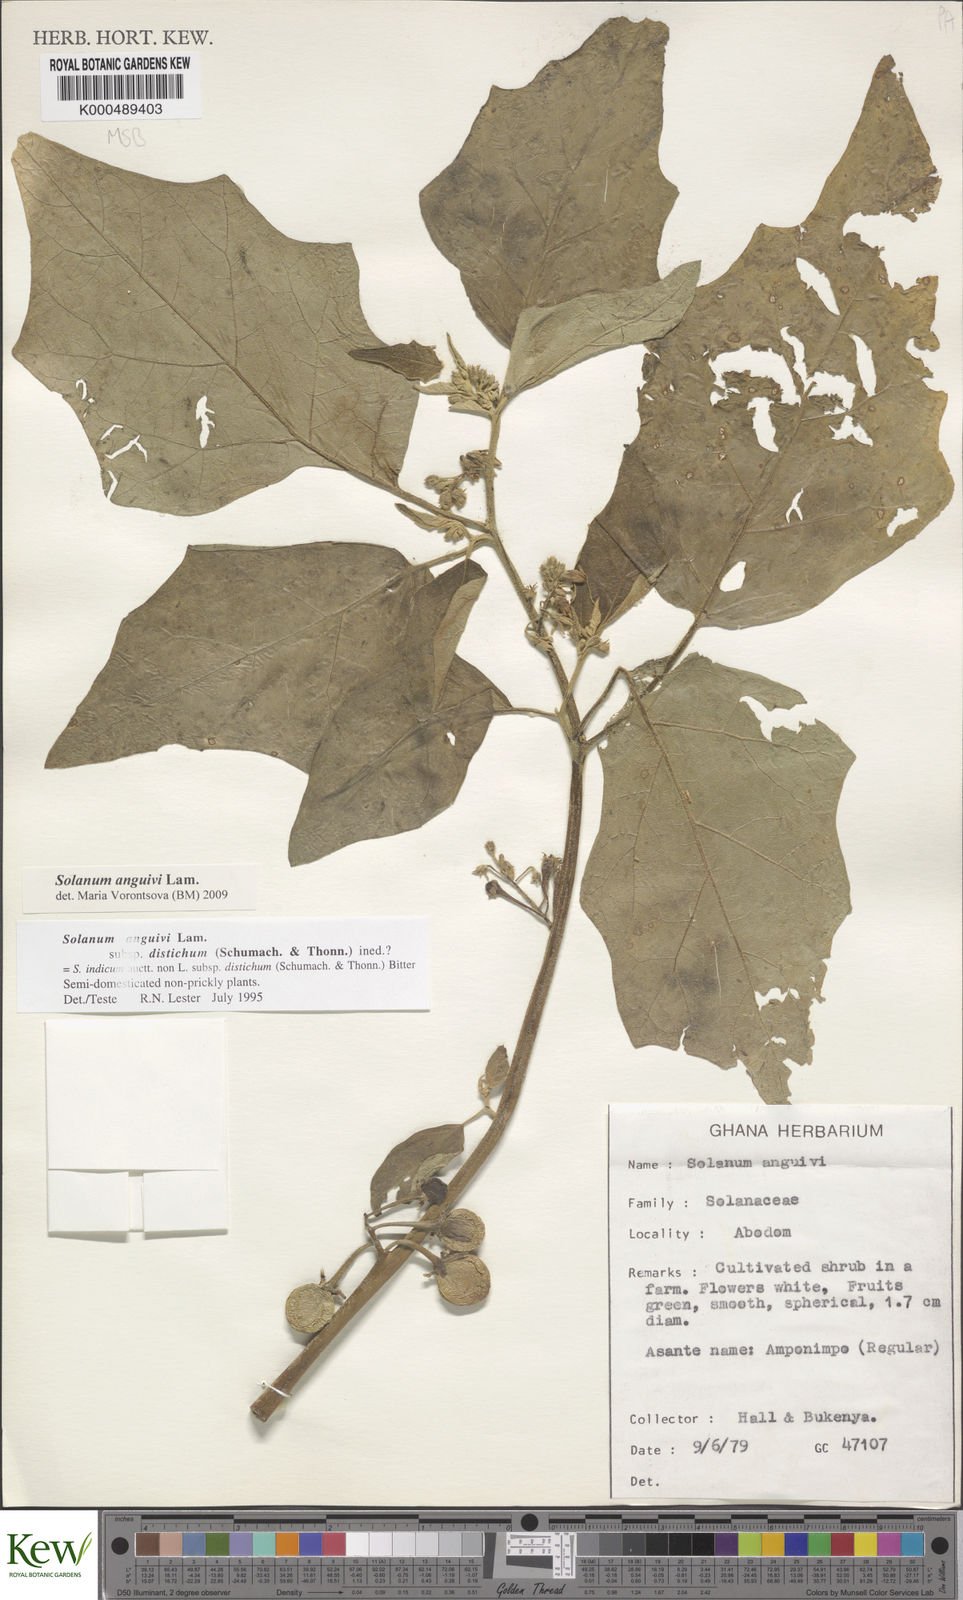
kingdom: Plantae
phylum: Tracheophyta
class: Magnoliopsida
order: Solanales
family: Solanaceae
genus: Solanum
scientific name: Solanum anguivi
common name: Forest bitterberry
